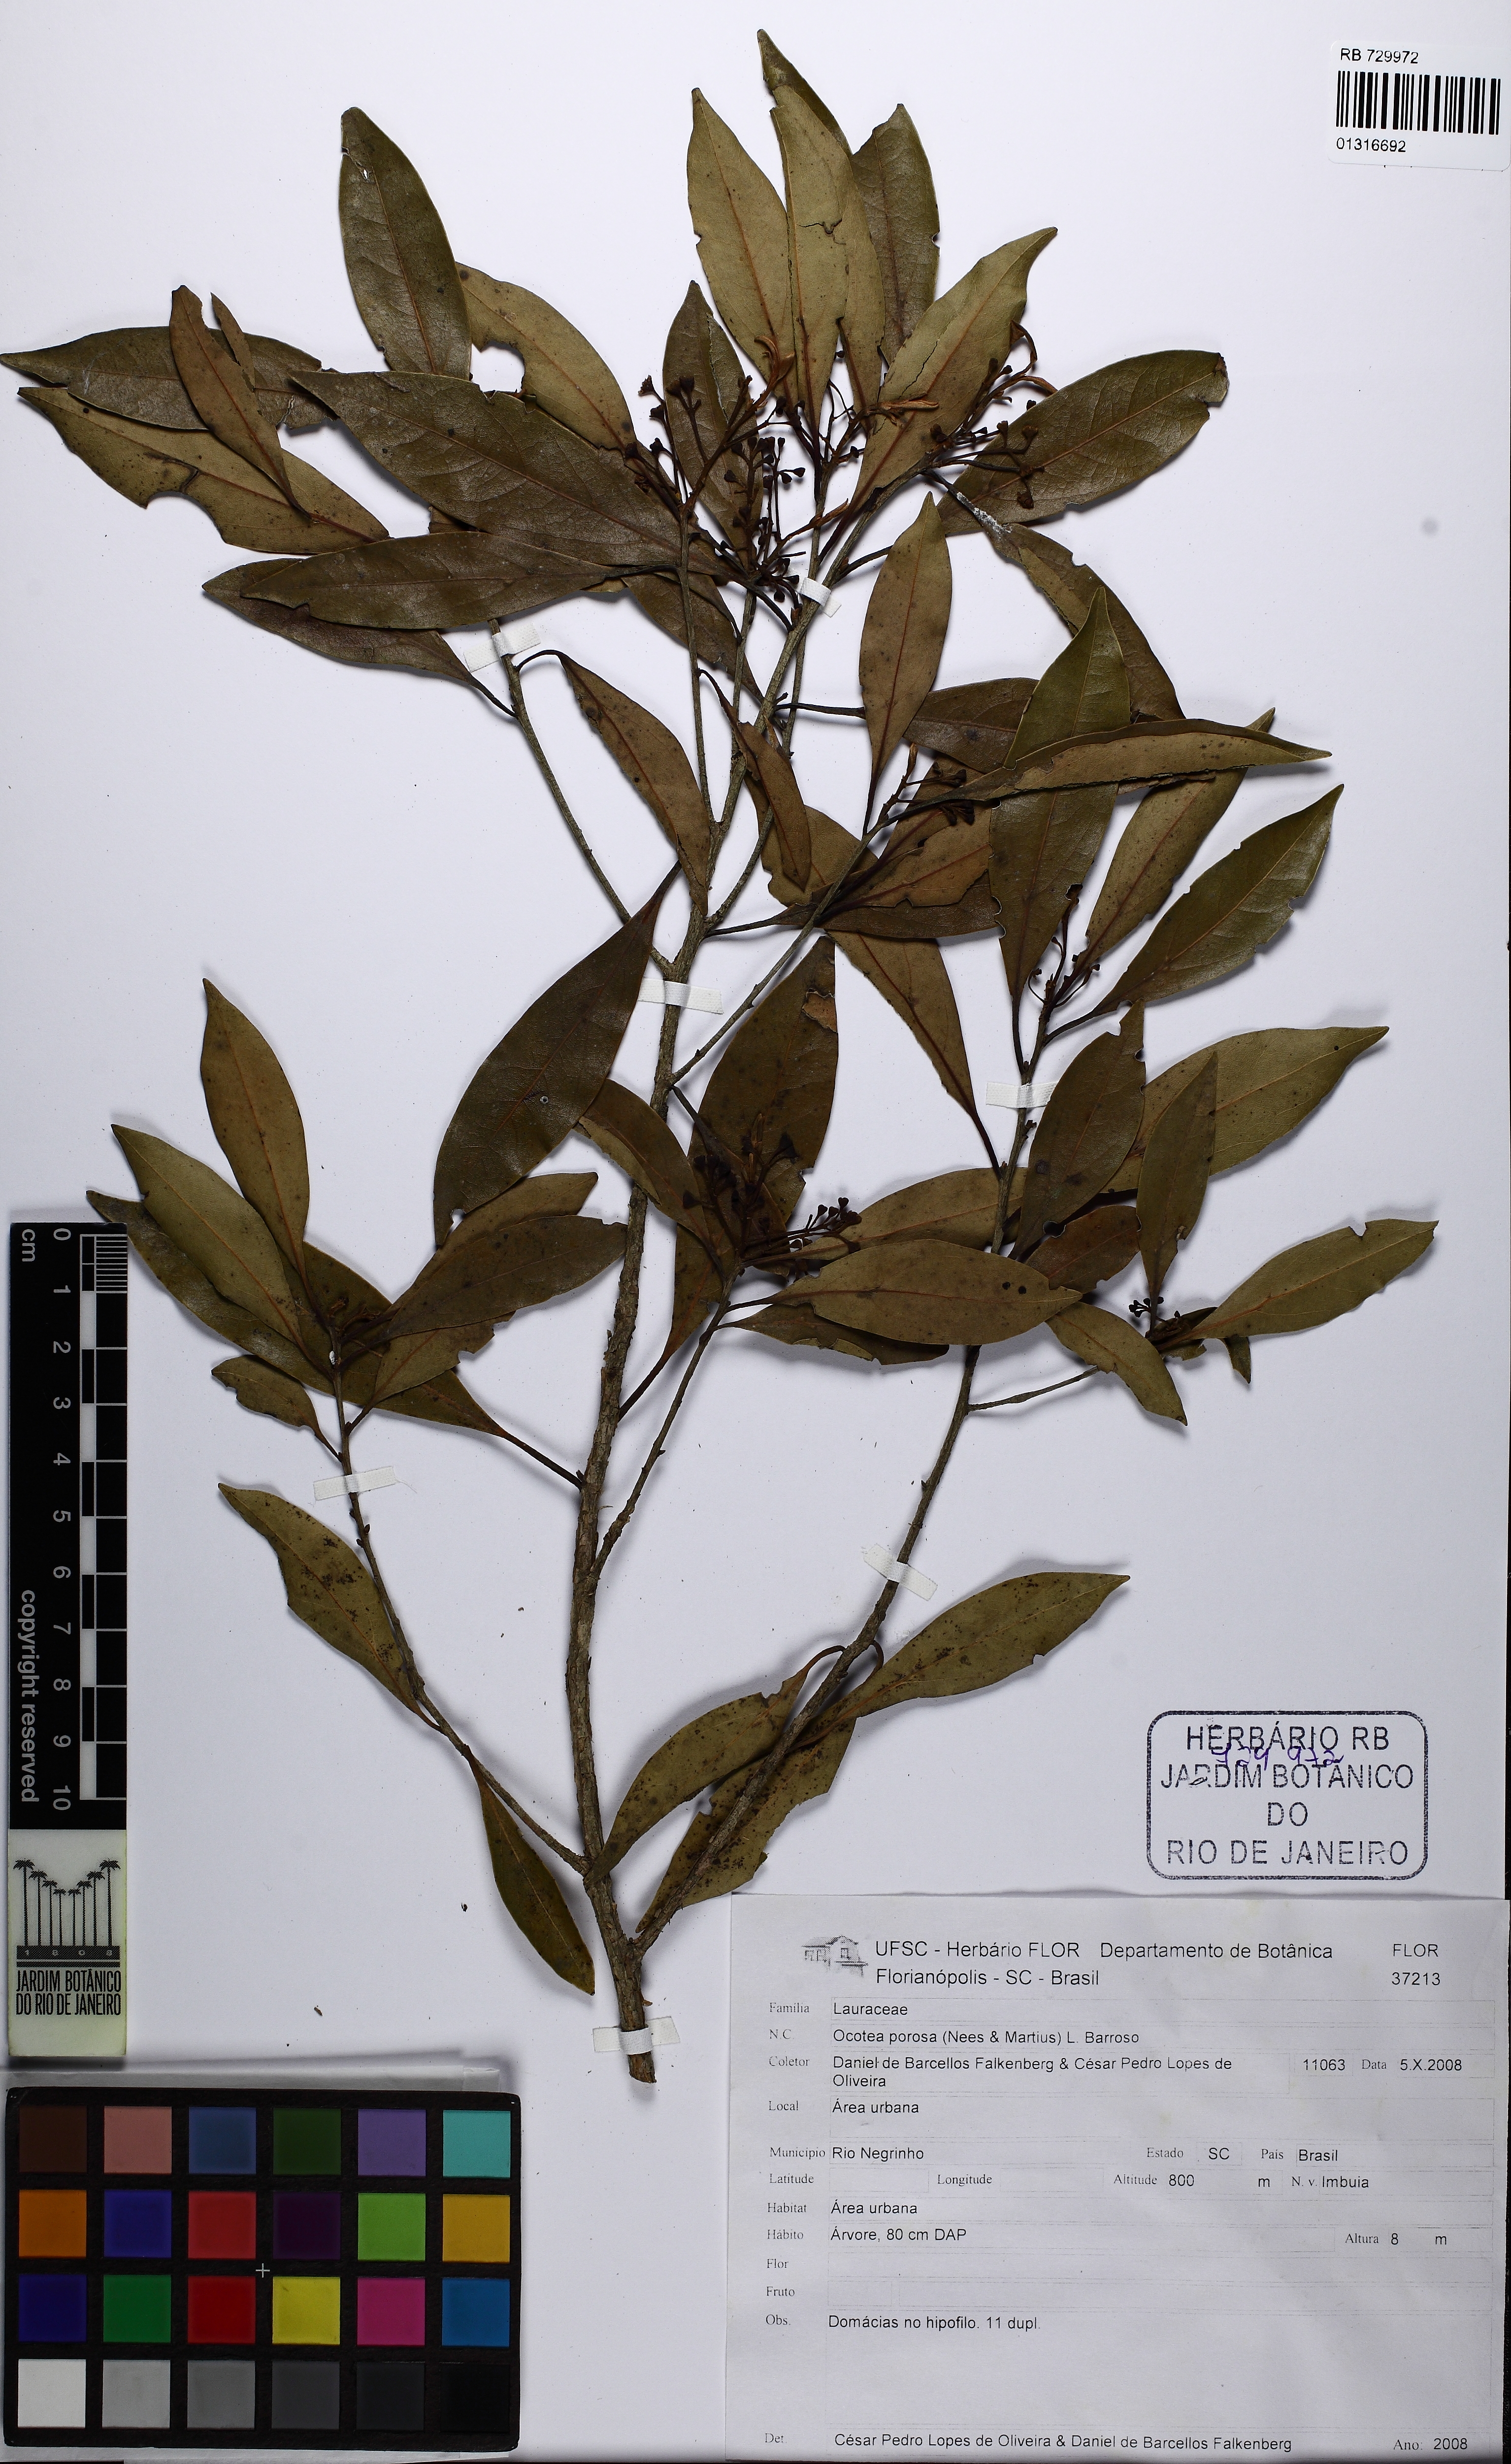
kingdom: Plantae
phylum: Tracheophyta
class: Magnoliopsida
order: Laurales
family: Lauraceae
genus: Ocotea
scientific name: Ocotea porosa
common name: Brazilian-walnut
